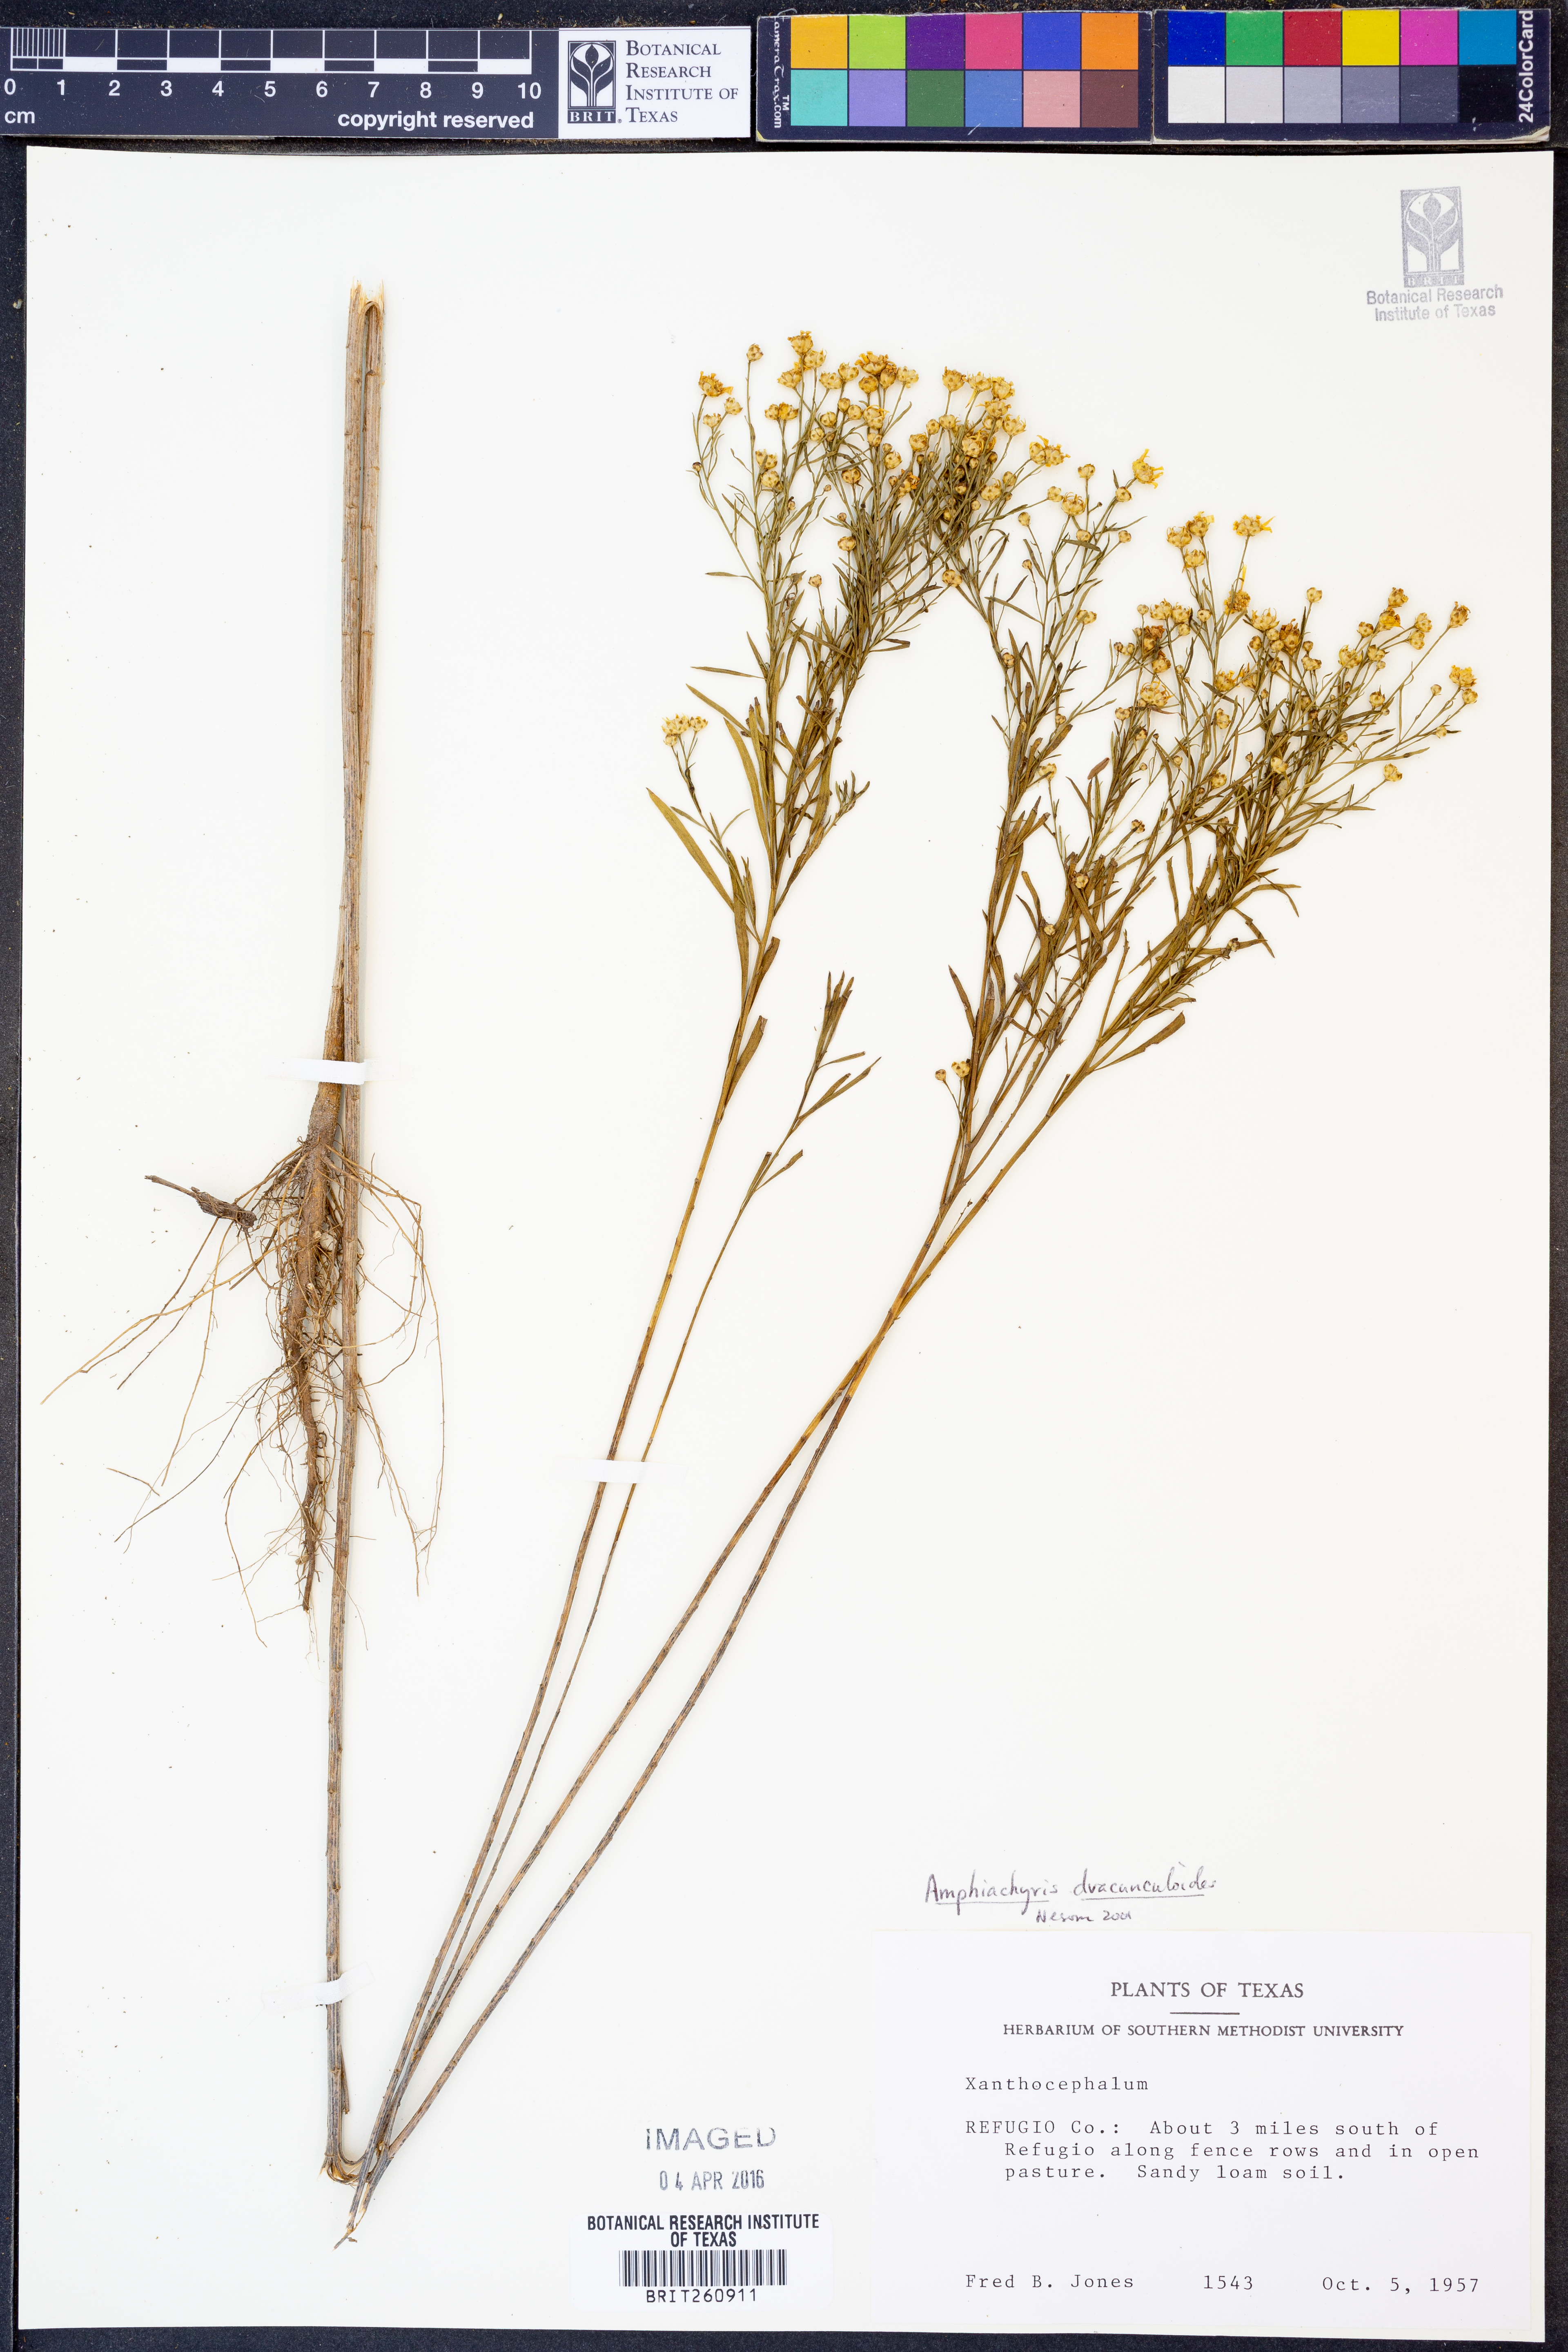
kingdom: Plantae
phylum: Tracheophyta
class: Magnoliopsida
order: Asterales
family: Asteraceae
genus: Amphiachyris
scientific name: Amphiachyris dracunculoides
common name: Broomweed
